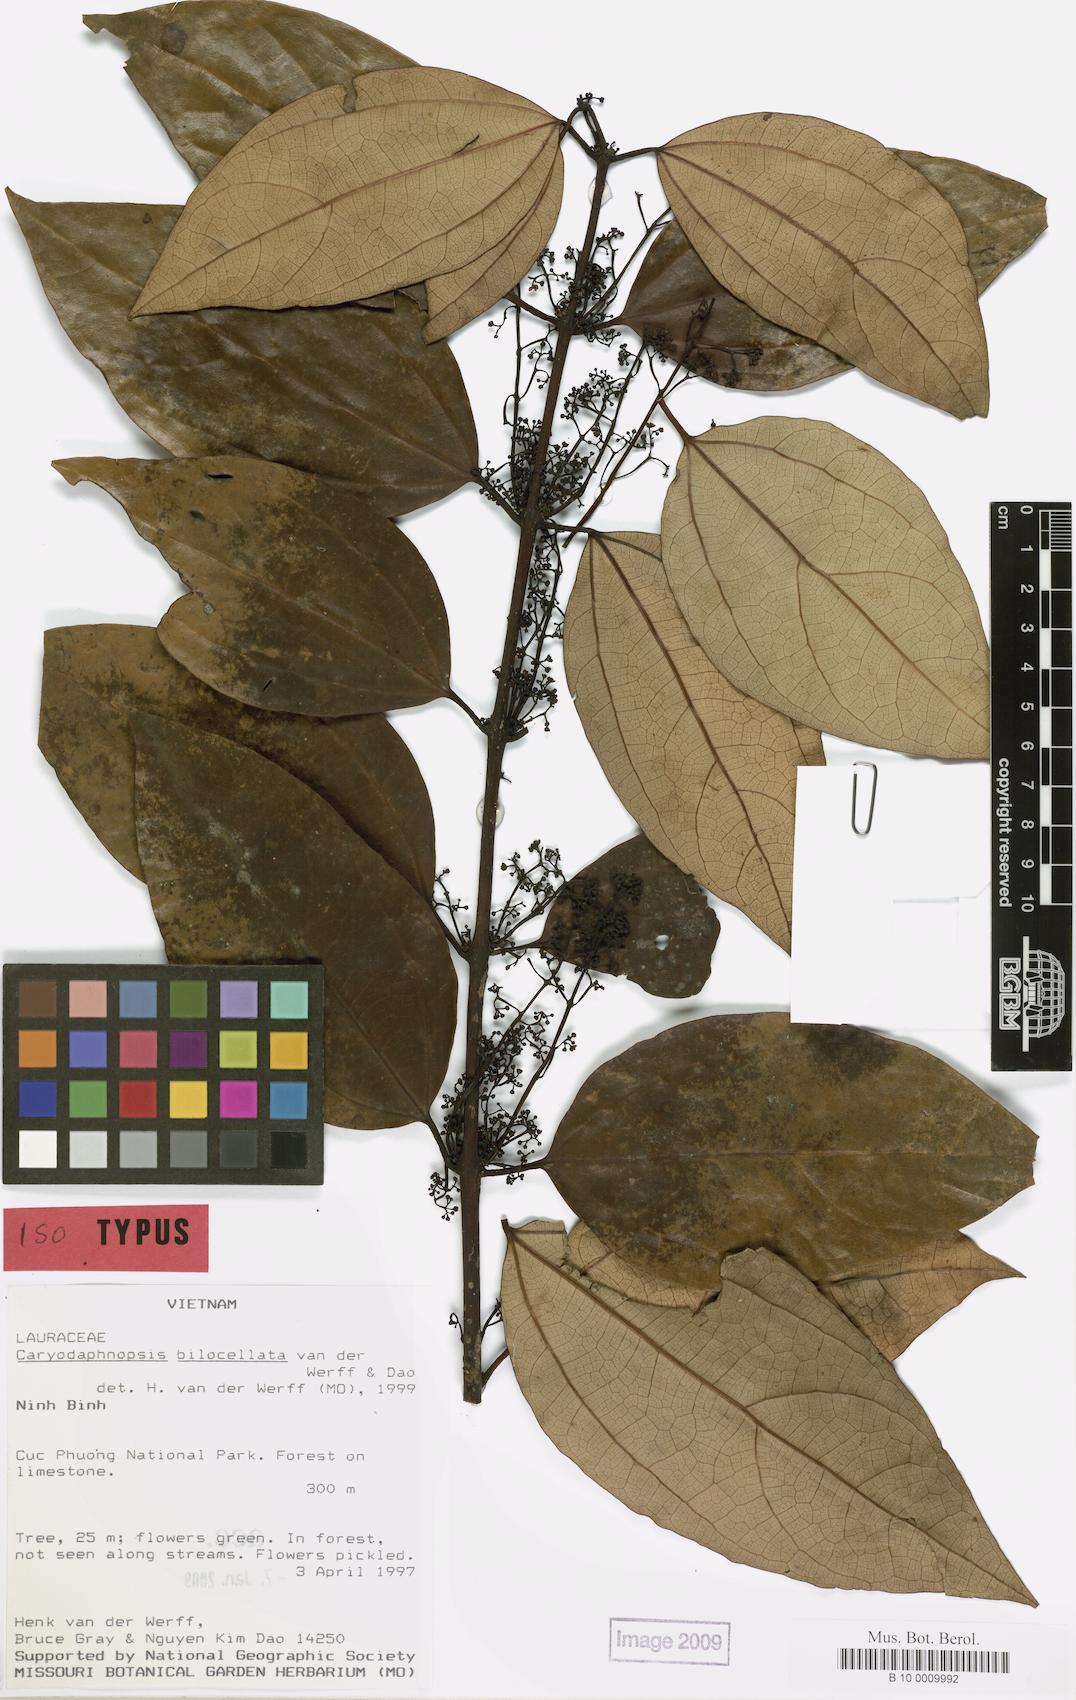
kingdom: Plantae
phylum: Tracheophyta
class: Magnoliopsida
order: Laurales
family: Lauraceae
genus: Caryodaphnopsis
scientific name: Caryodaphnopsis bilocellata
